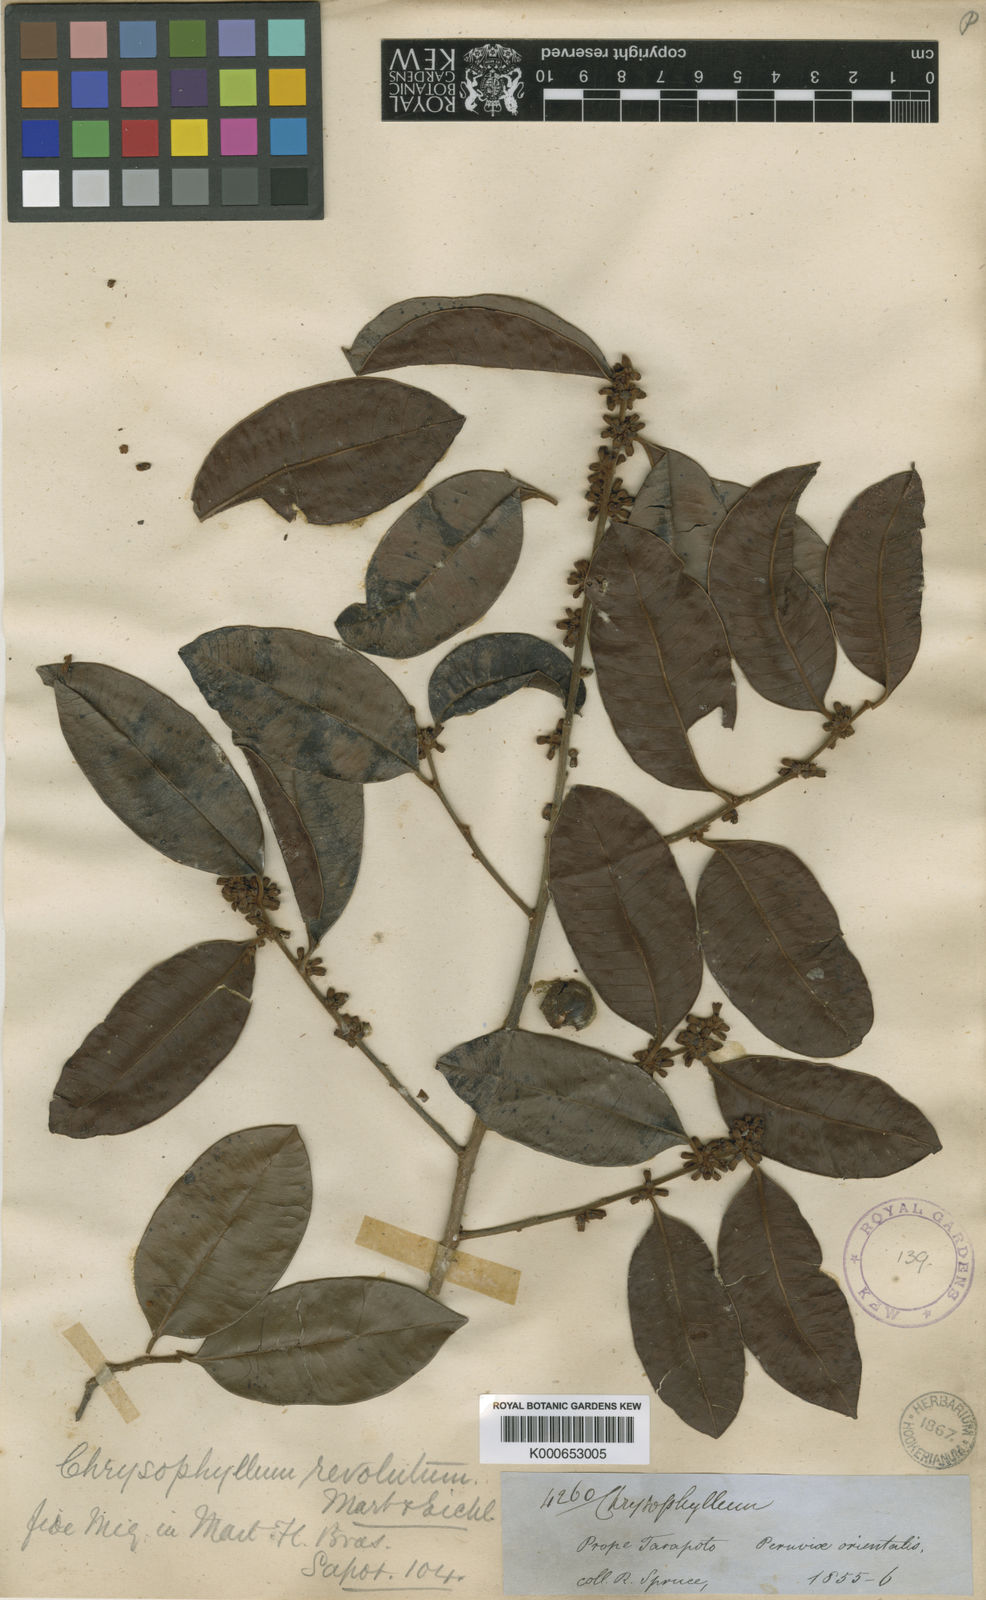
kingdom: Plantae
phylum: Tracheophyta
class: Magnoliopsida
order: Ericales
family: Sapotaceae
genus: Chrysophyllum
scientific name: Chrysophyllum revolutum
